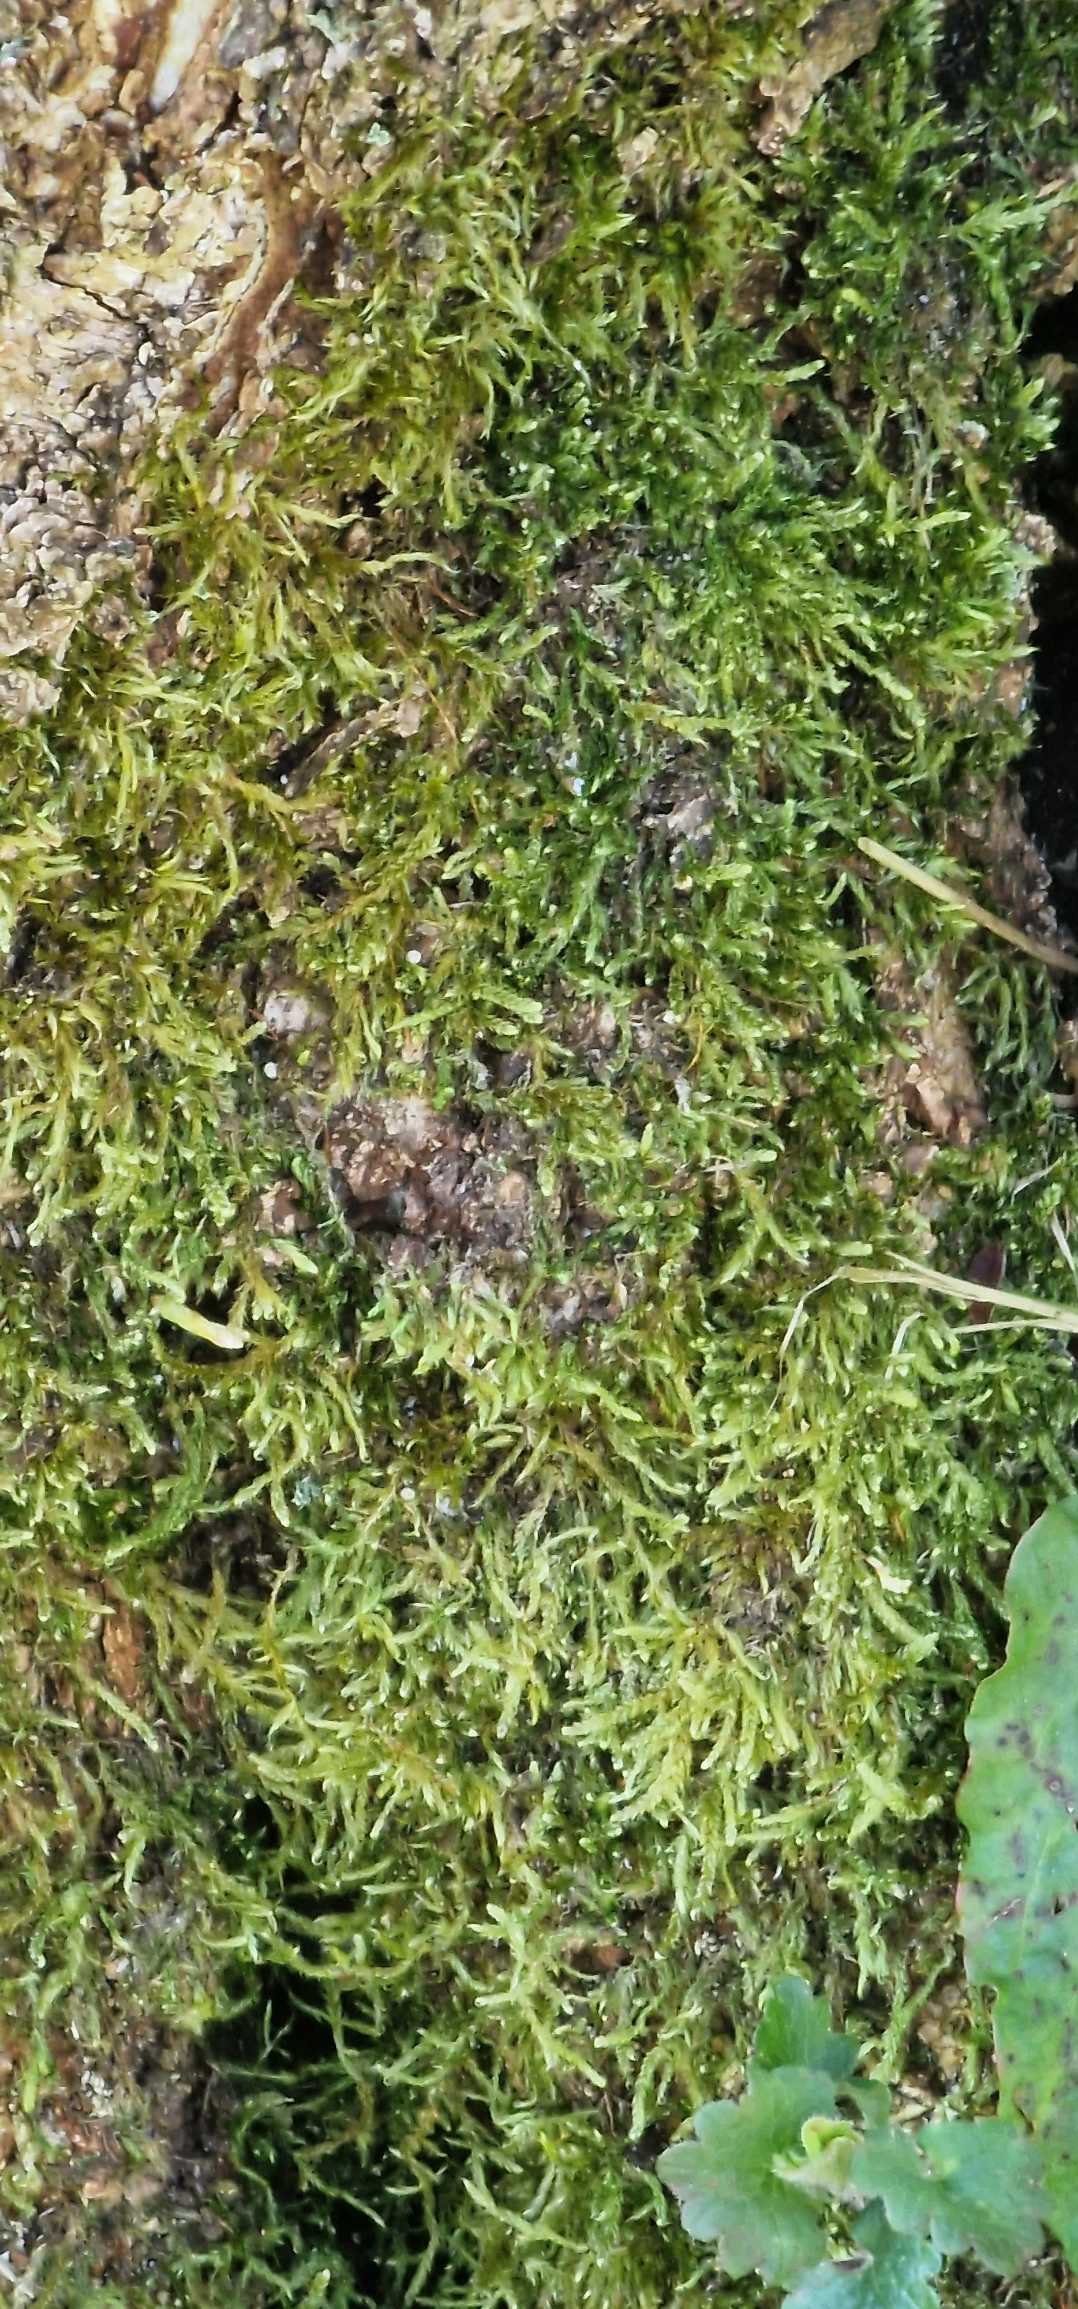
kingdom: Plantae
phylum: Bryophyta
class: Bryopsida
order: Hypnales
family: Hypnaceae
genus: Hypnum
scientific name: Hypnum
